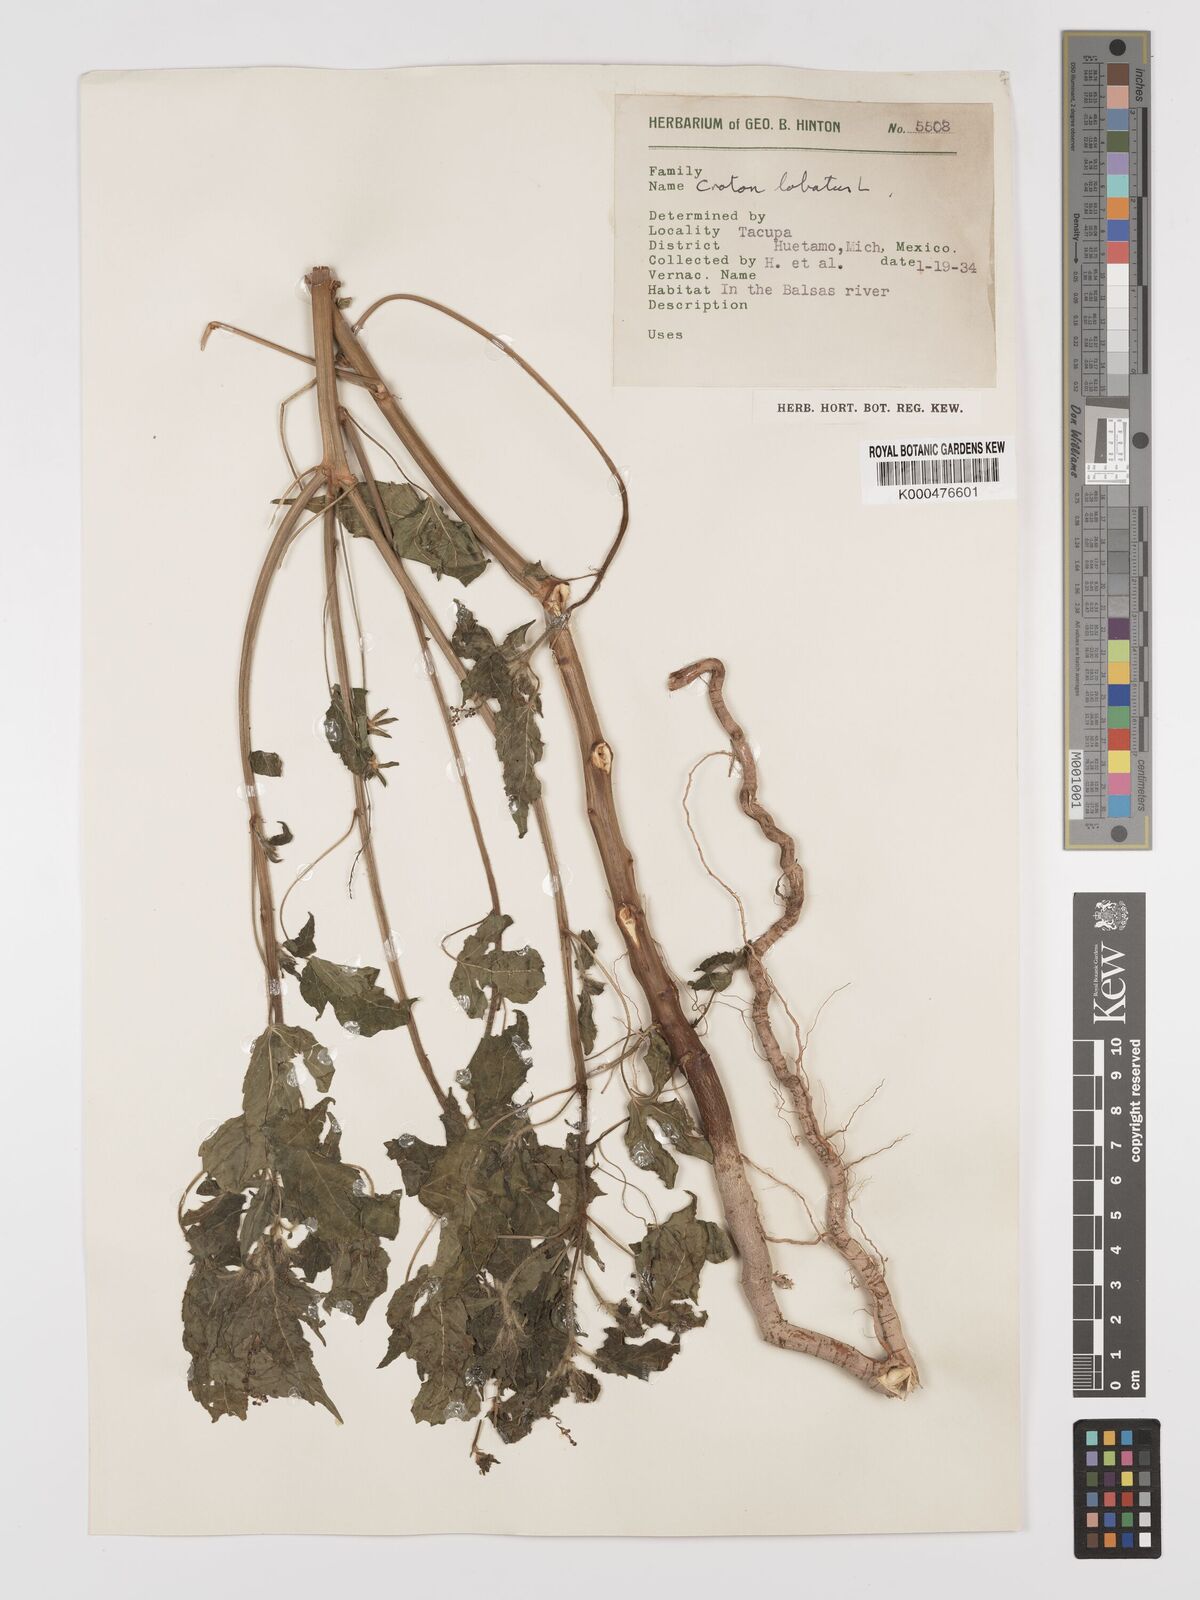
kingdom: Plantae
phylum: Tracheophyta
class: Magnoliopsida
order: Malpighiales
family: Euphorbiaceae
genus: Astraea
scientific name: Astraea lobata
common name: Lobed croton
